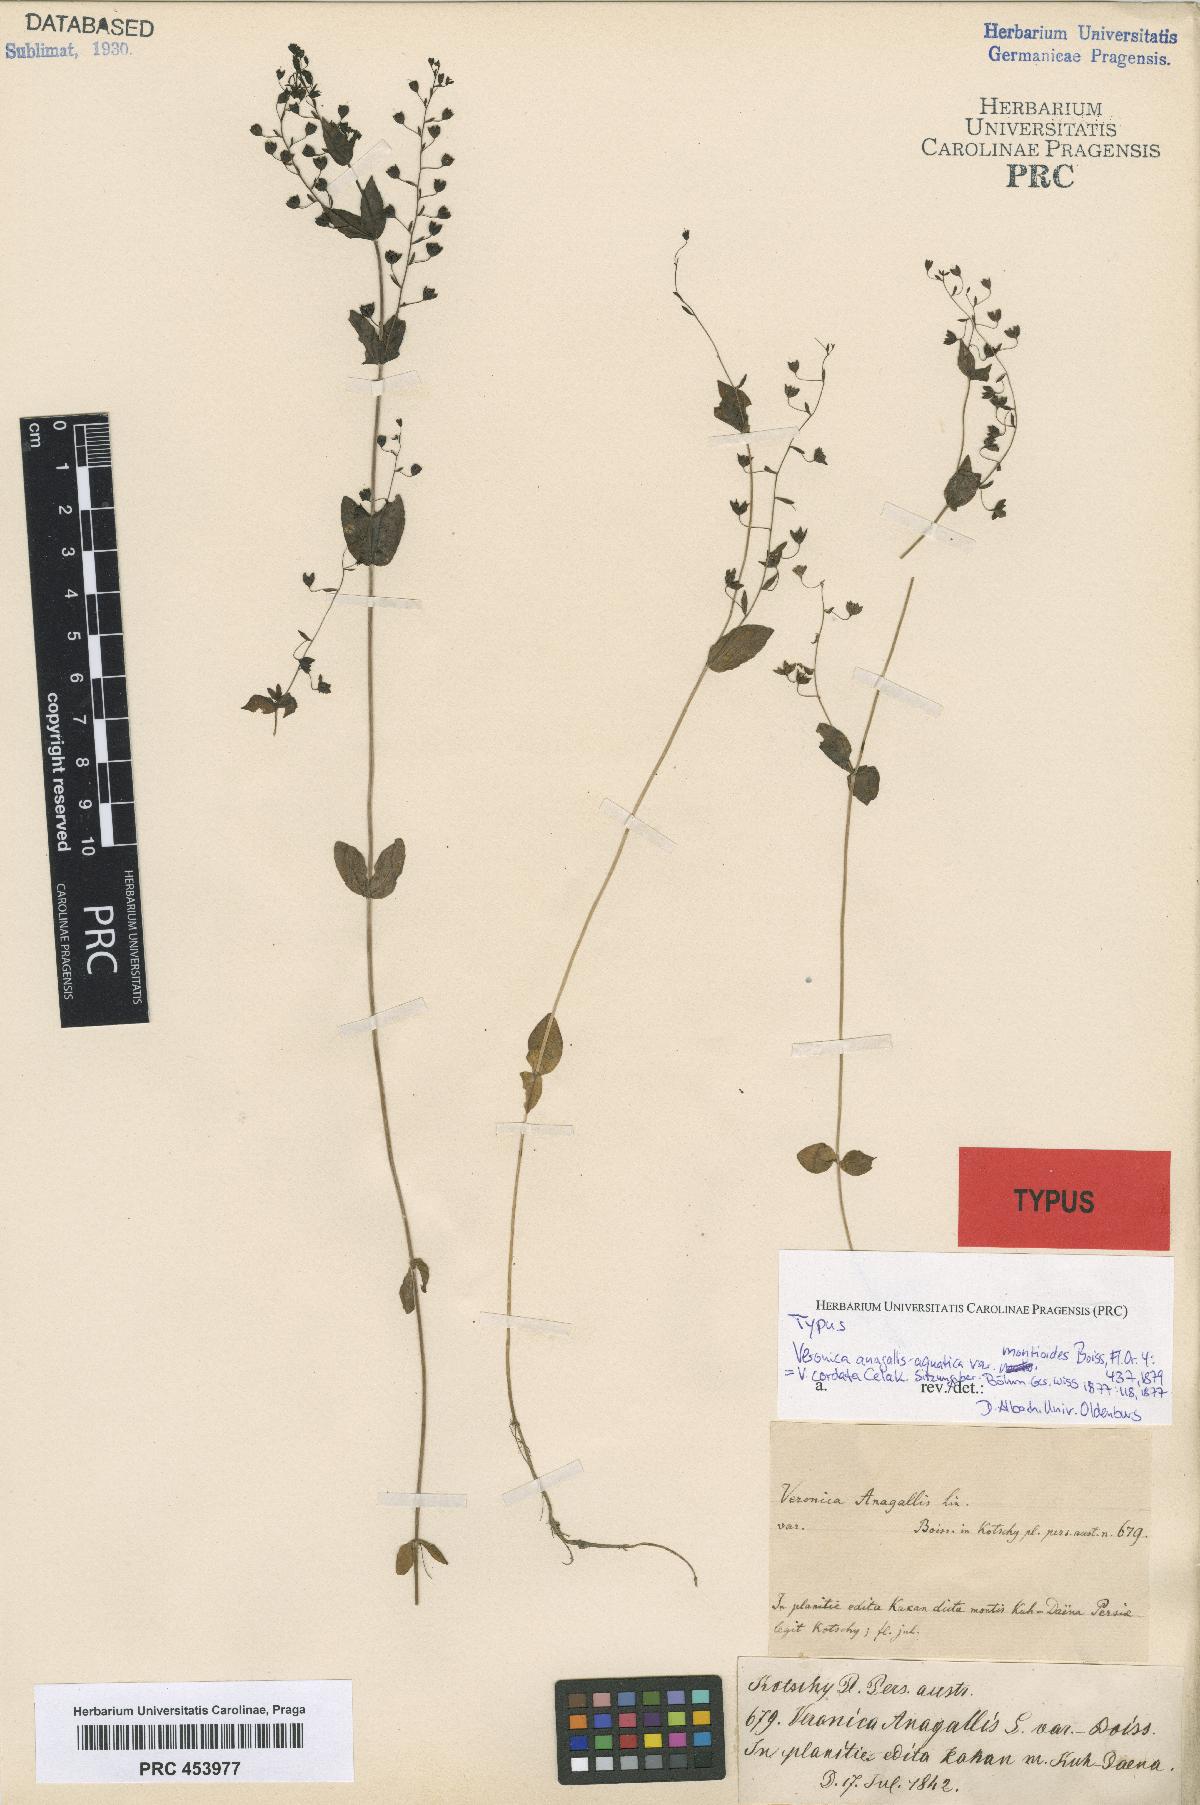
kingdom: Plantae
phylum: Tracheophyta
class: Magnoliopsida
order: Lamiales
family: Plantaginaceae
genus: Veronica
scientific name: Veronica anagallis-aquatica
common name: Water speedwell
